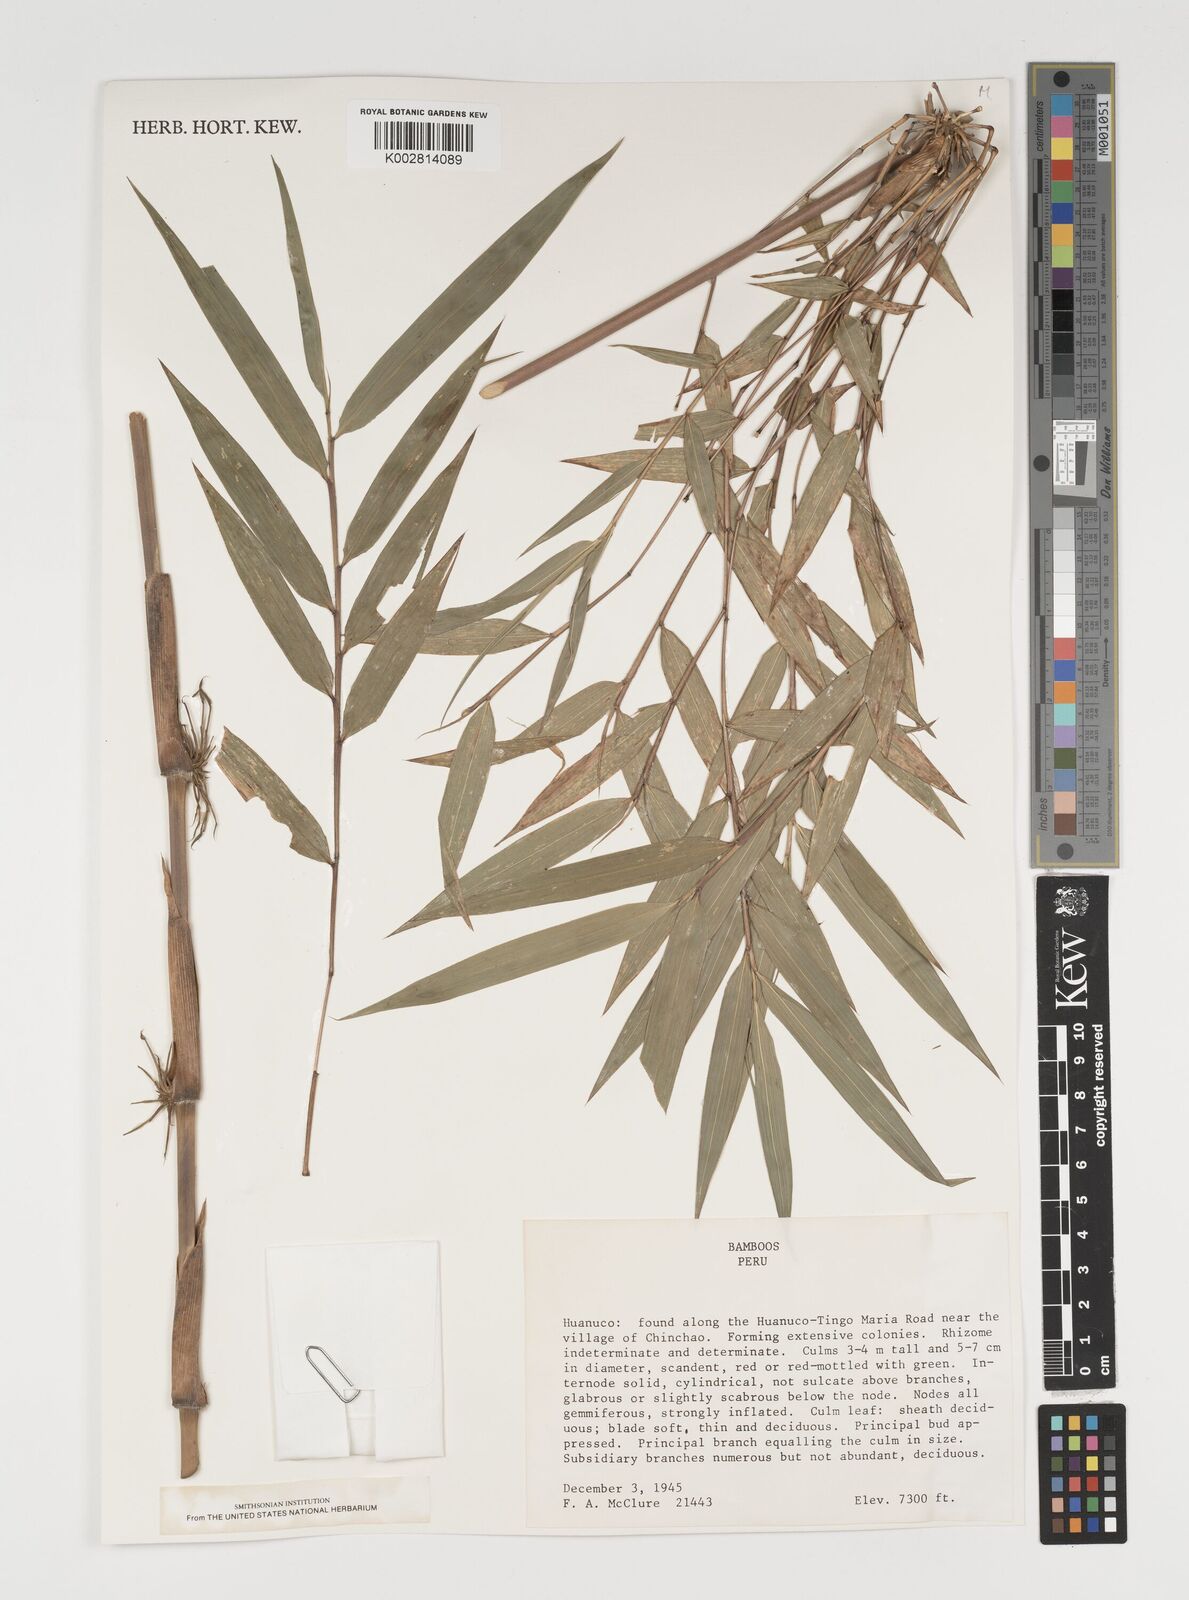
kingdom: Plantae
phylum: Tracheophyta
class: Liliopsida
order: Poales
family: Poaceae
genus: Chusquea
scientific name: Chusquea
